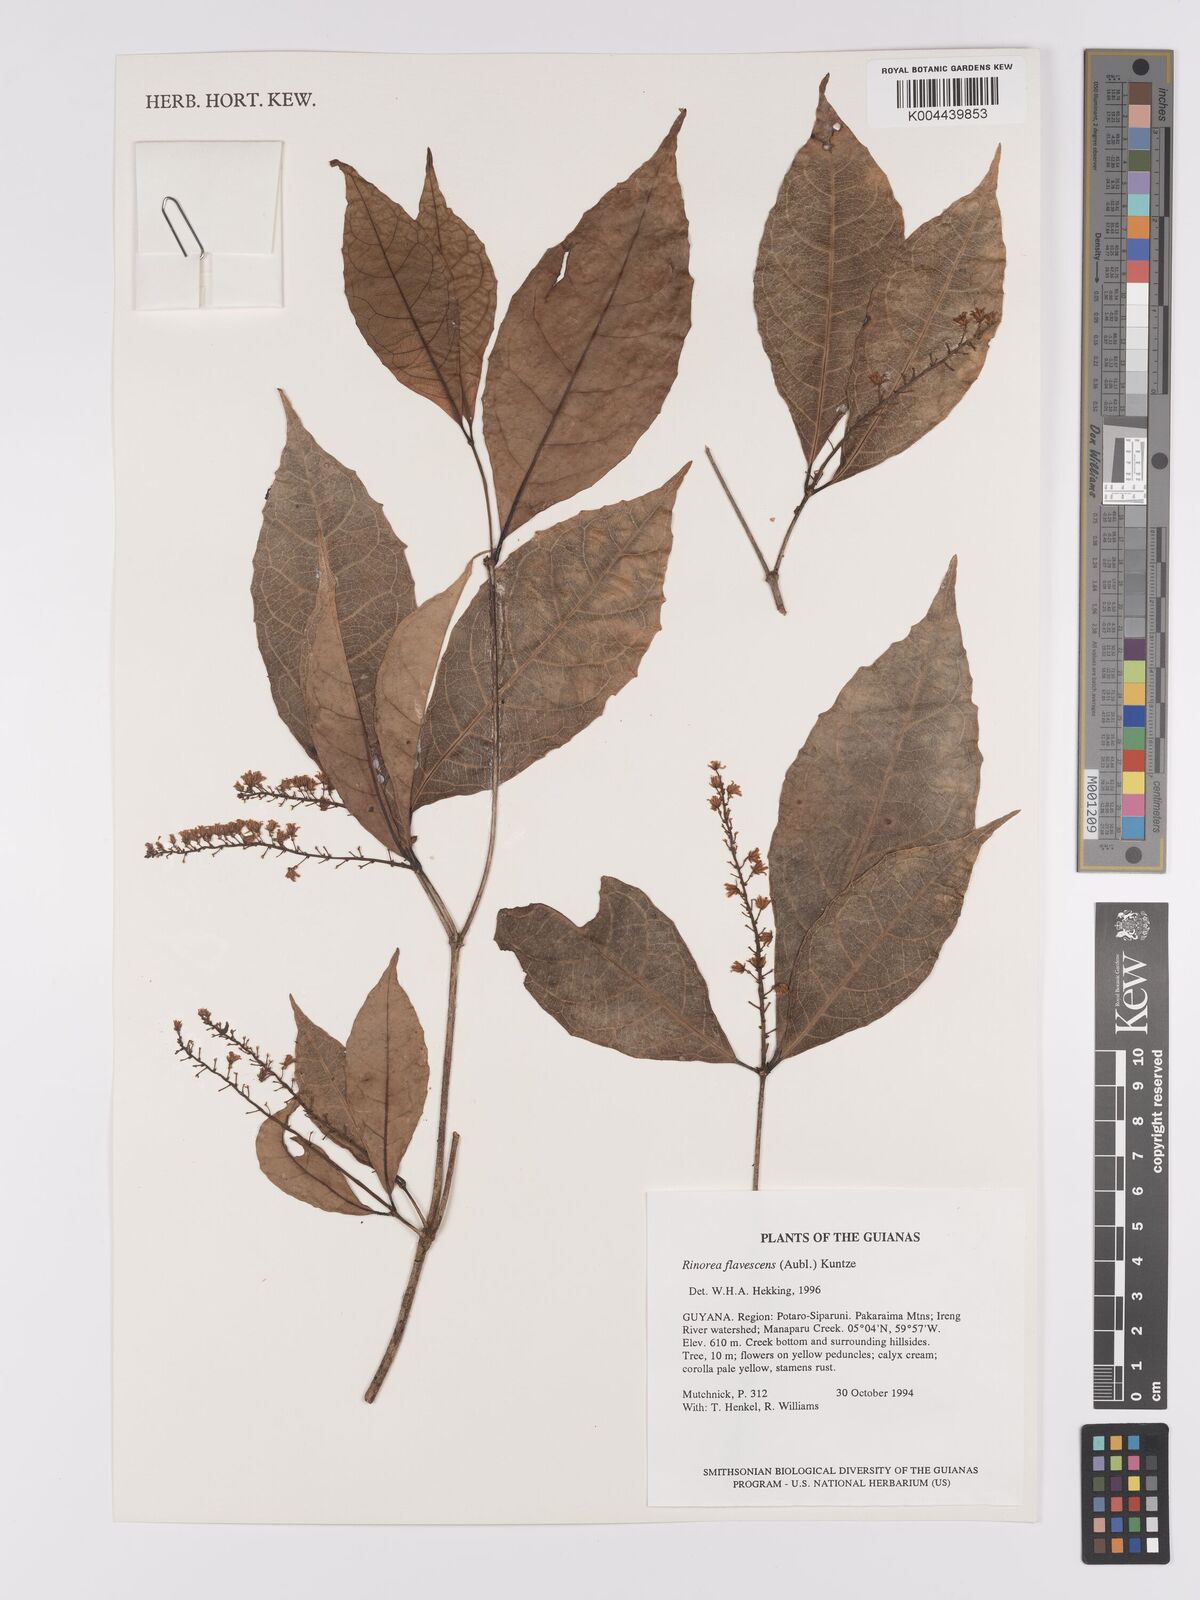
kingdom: Plantae
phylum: Tracheophyta
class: Magnoliopsida
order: Malpighiales
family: Violaceae
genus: Rinorea
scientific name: Rinorea flavescens
